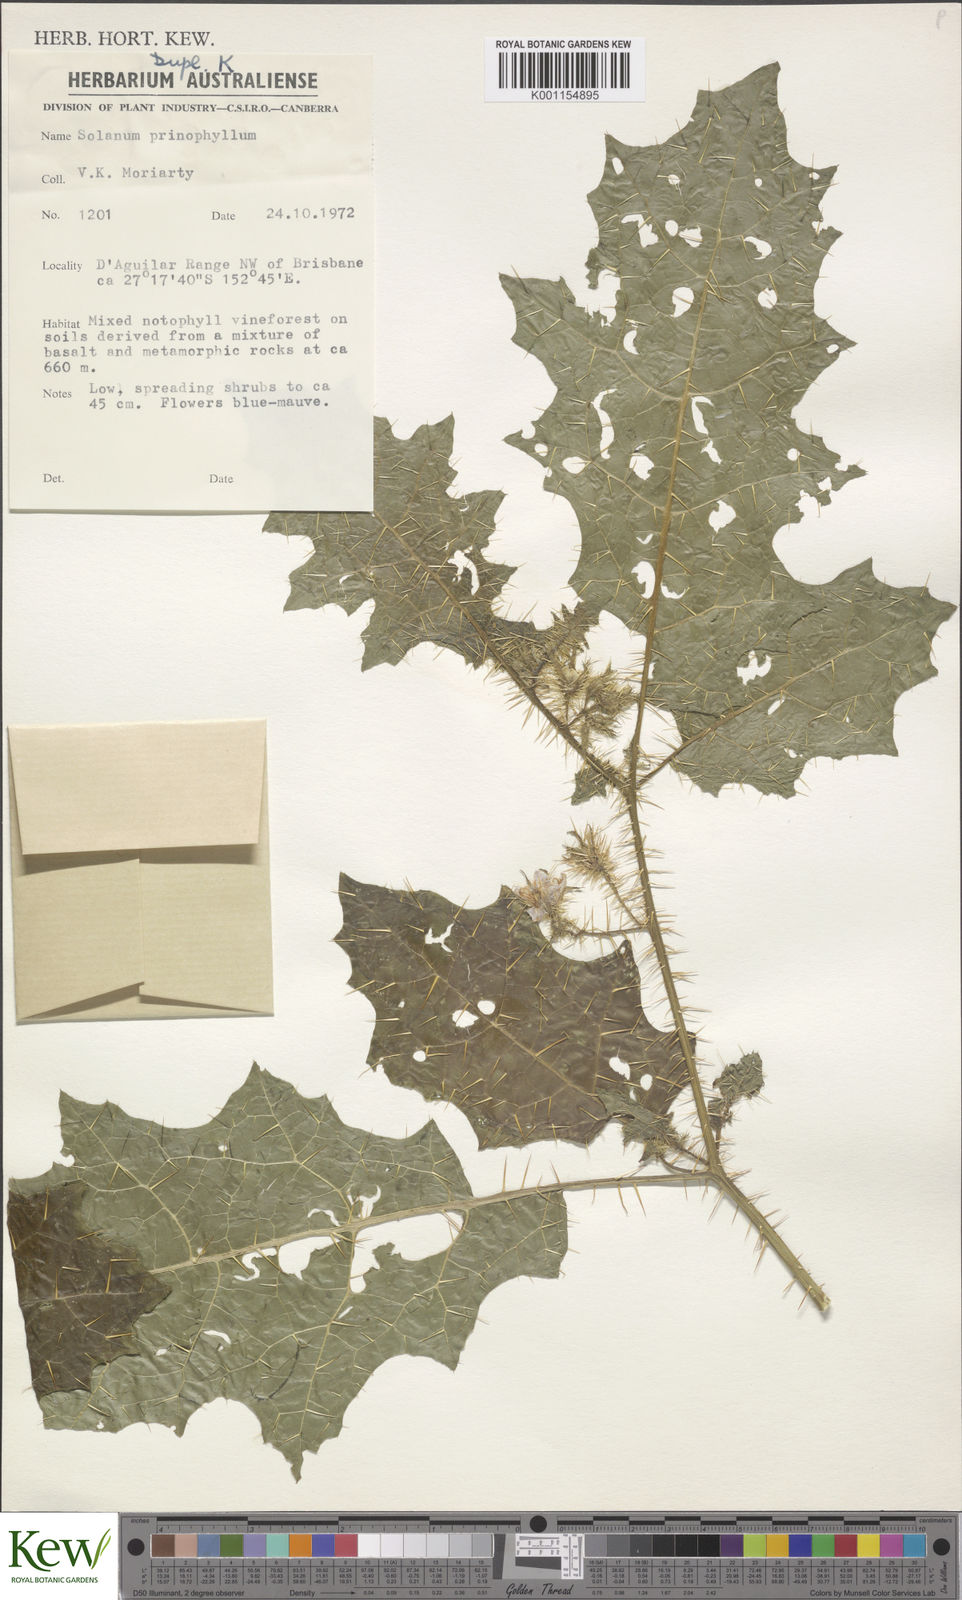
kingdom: Plantae
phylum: Tracheophyta
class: Magnoliopsida
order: Solanales
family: Solanaceae
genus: Solanum
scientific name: Solanum prinophyllum
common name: Forest nightshade
